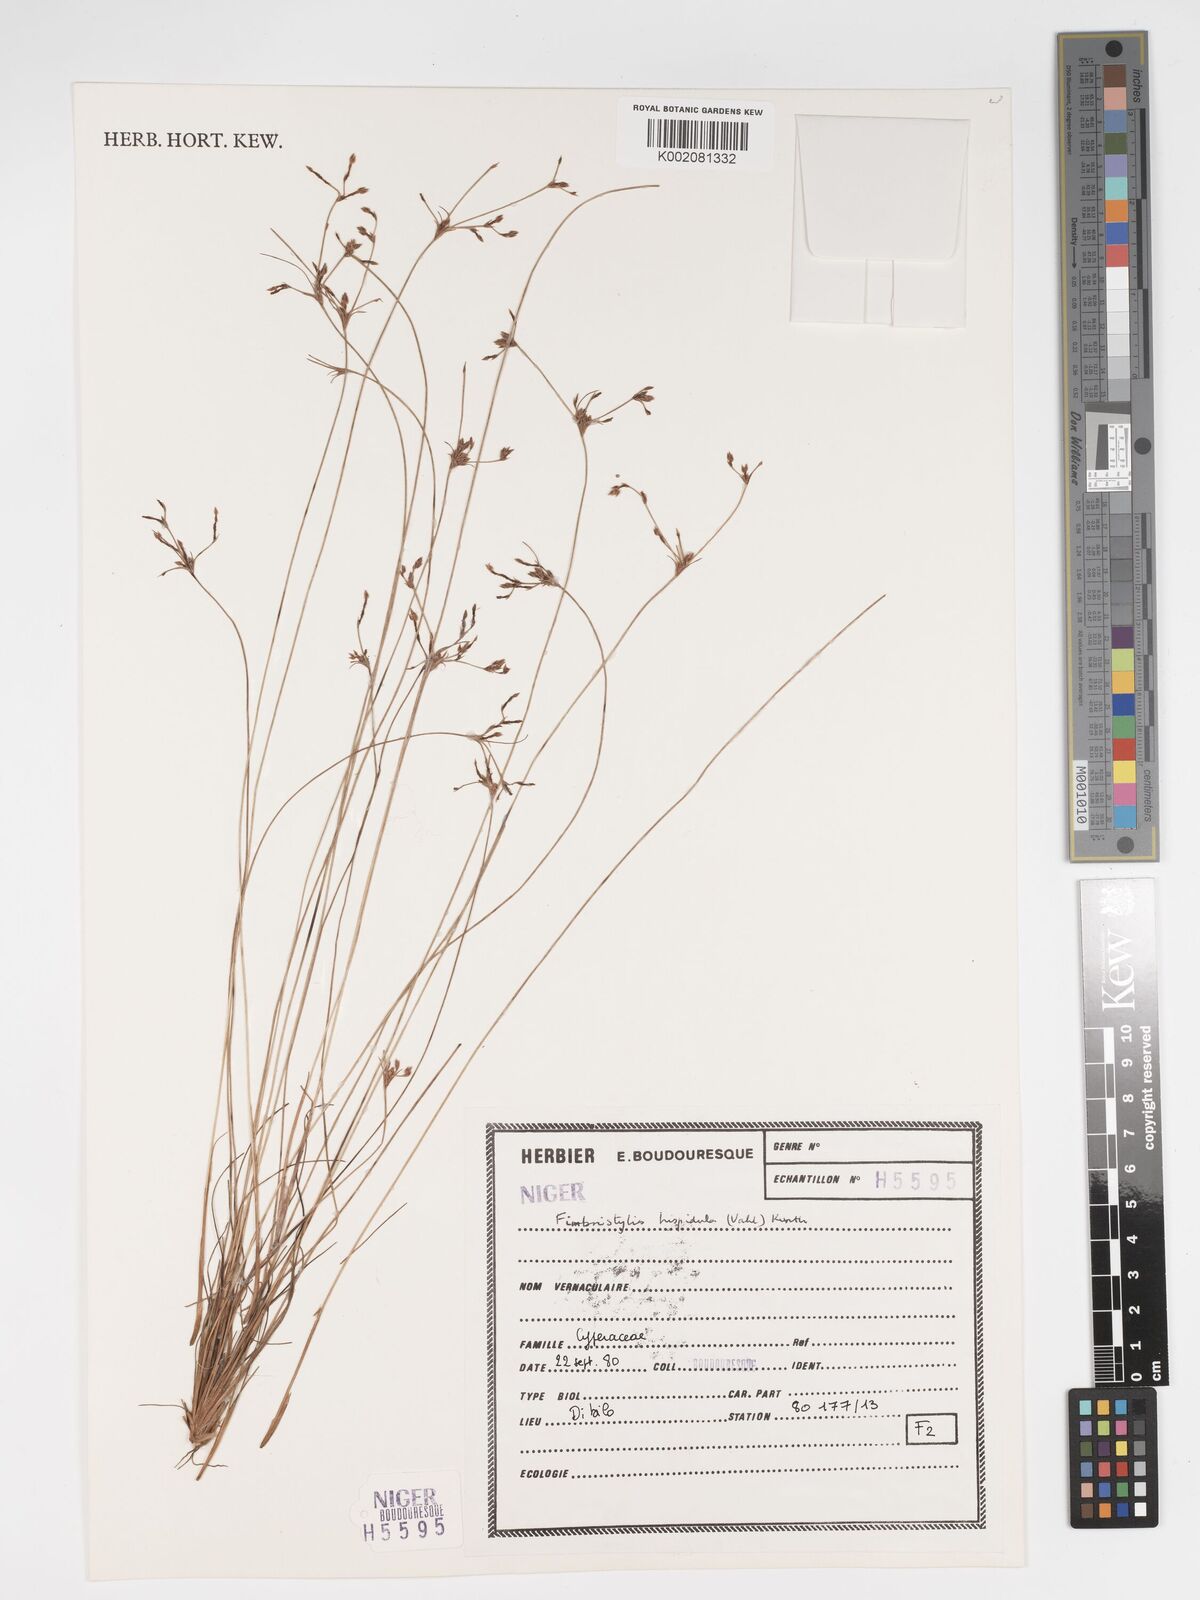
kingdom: Plantae
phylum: Tracheophyta
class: Liliopsida
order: Poales
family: Cyperaceae
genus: Bulbostylis
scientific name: Bulbostylis hispidula
